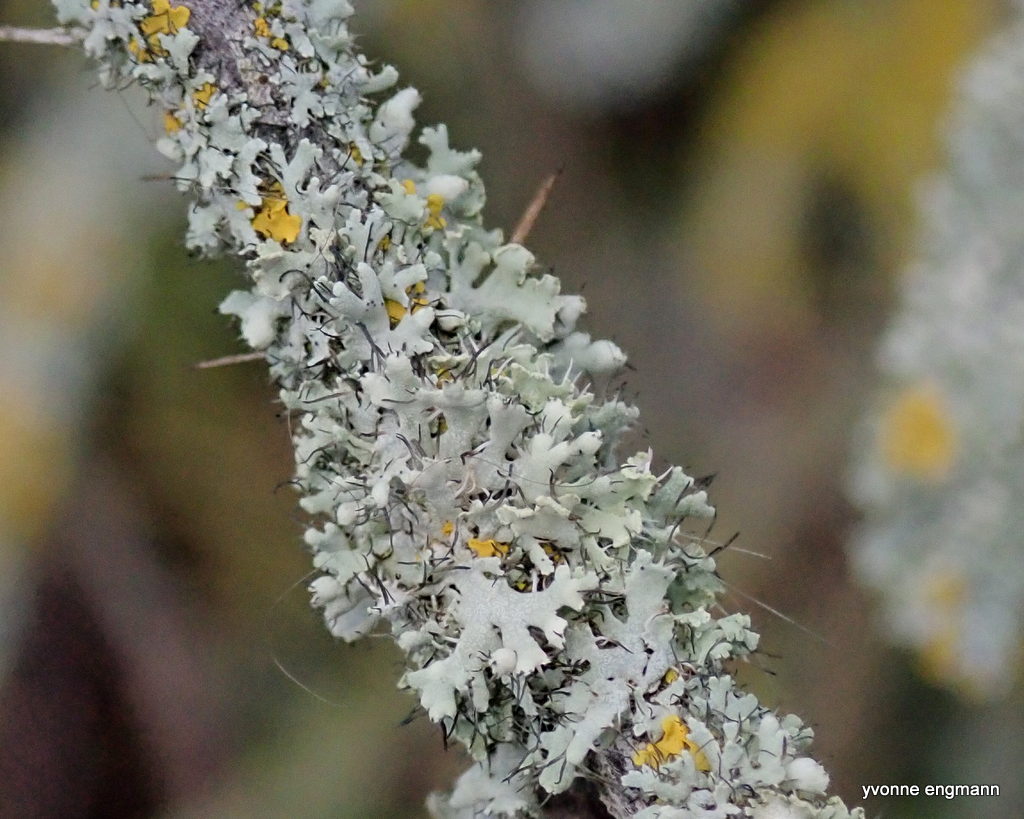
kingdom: Fungi
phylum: Ascomycota
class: Lecanoromycetes
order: Caliciales
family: Physciaceae
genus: Physcia
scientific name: Physcia tenella
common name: spæd rosetlav
